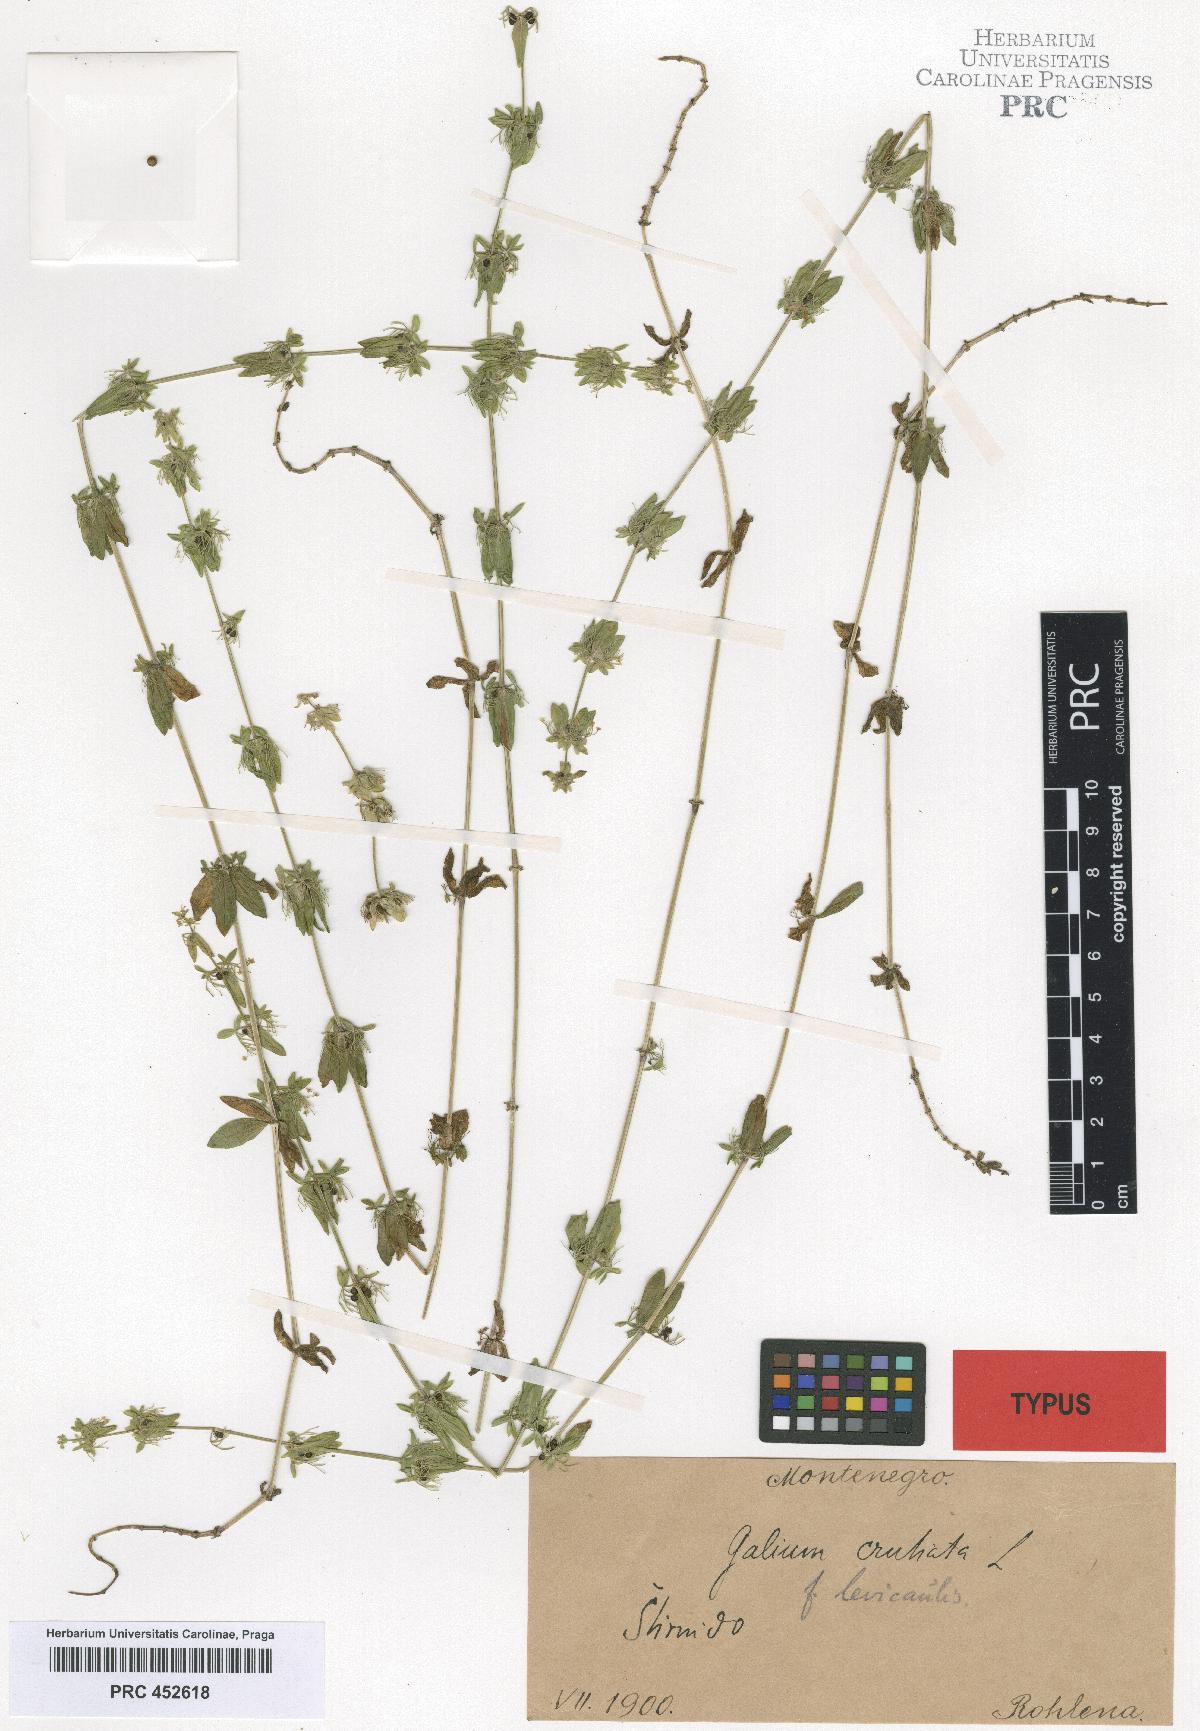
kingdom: Plantae
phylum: Tracheophyta
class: Magnoliopsida
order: Gentianales
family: Rubiaceae
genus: Cruciata
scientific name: Cruciata laevipes
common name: Crosswort
